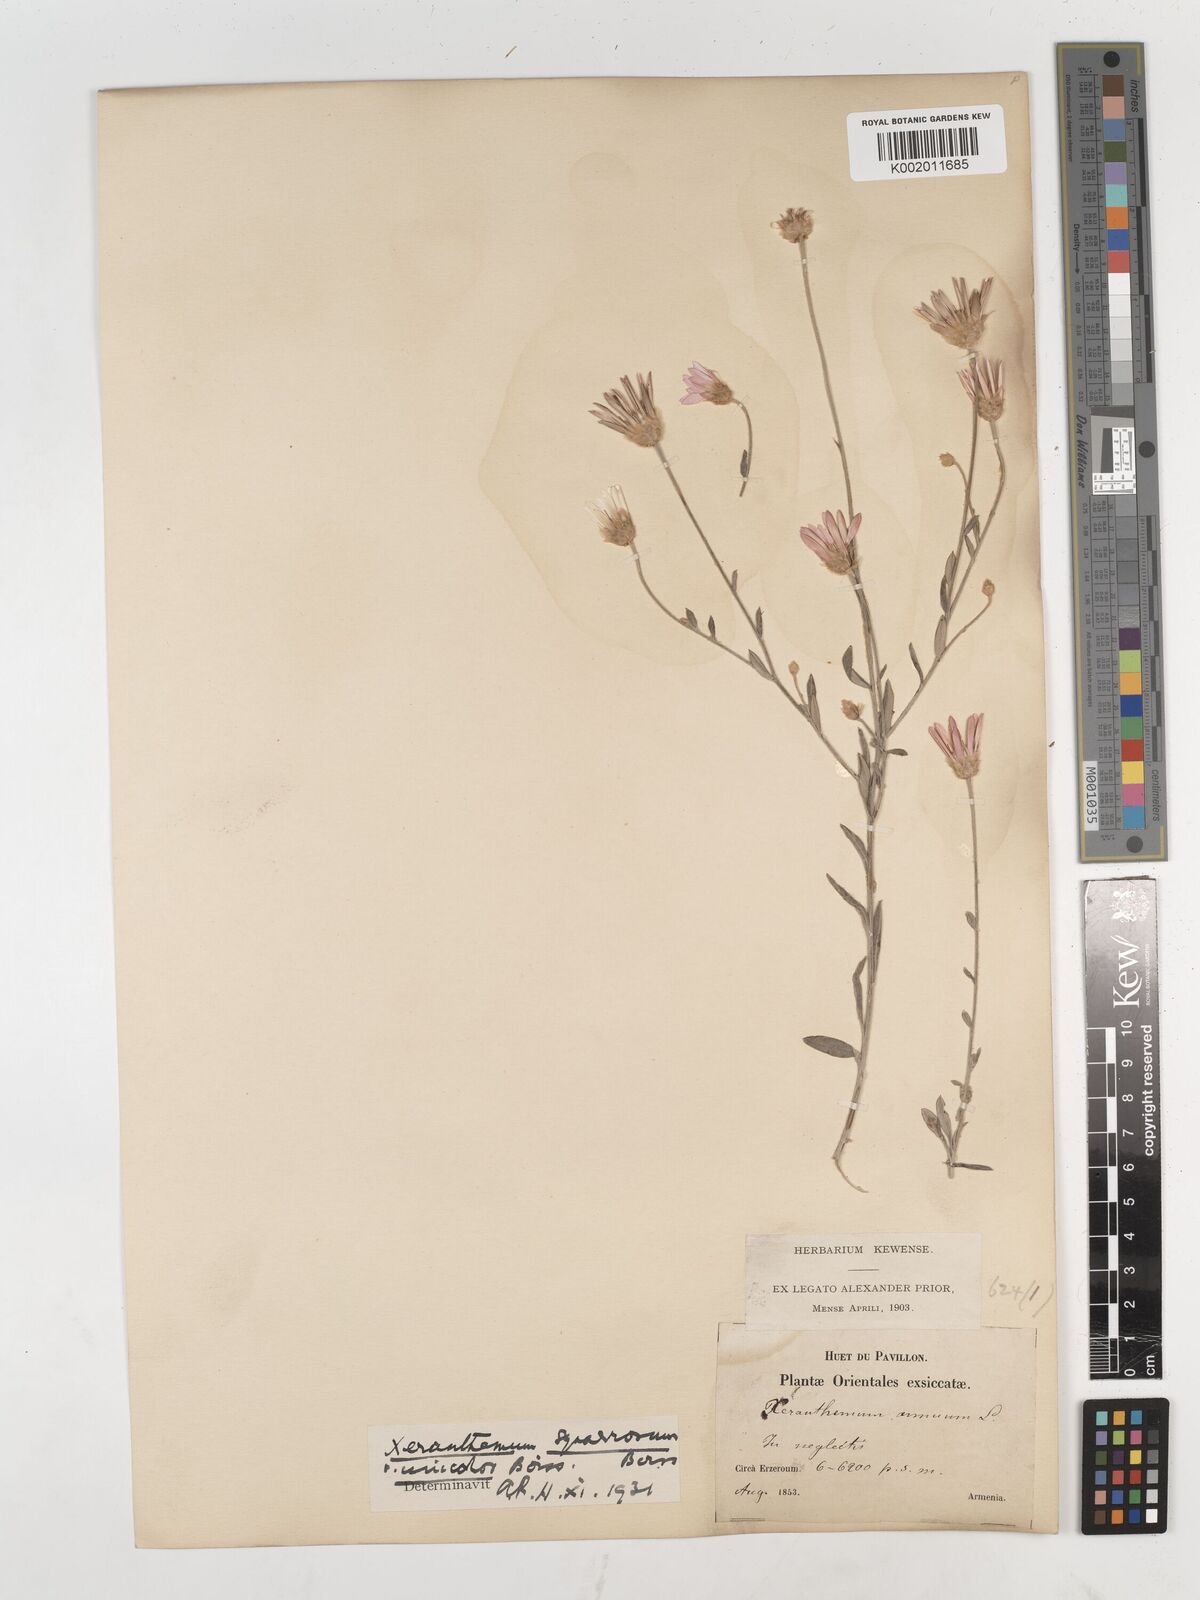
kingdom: Plantae
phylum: Tracheophyta
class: Magnoliopsida
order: Asterales
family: Asteraceae
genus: Xeranthemum
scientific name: Xeranthemum squarrosum
